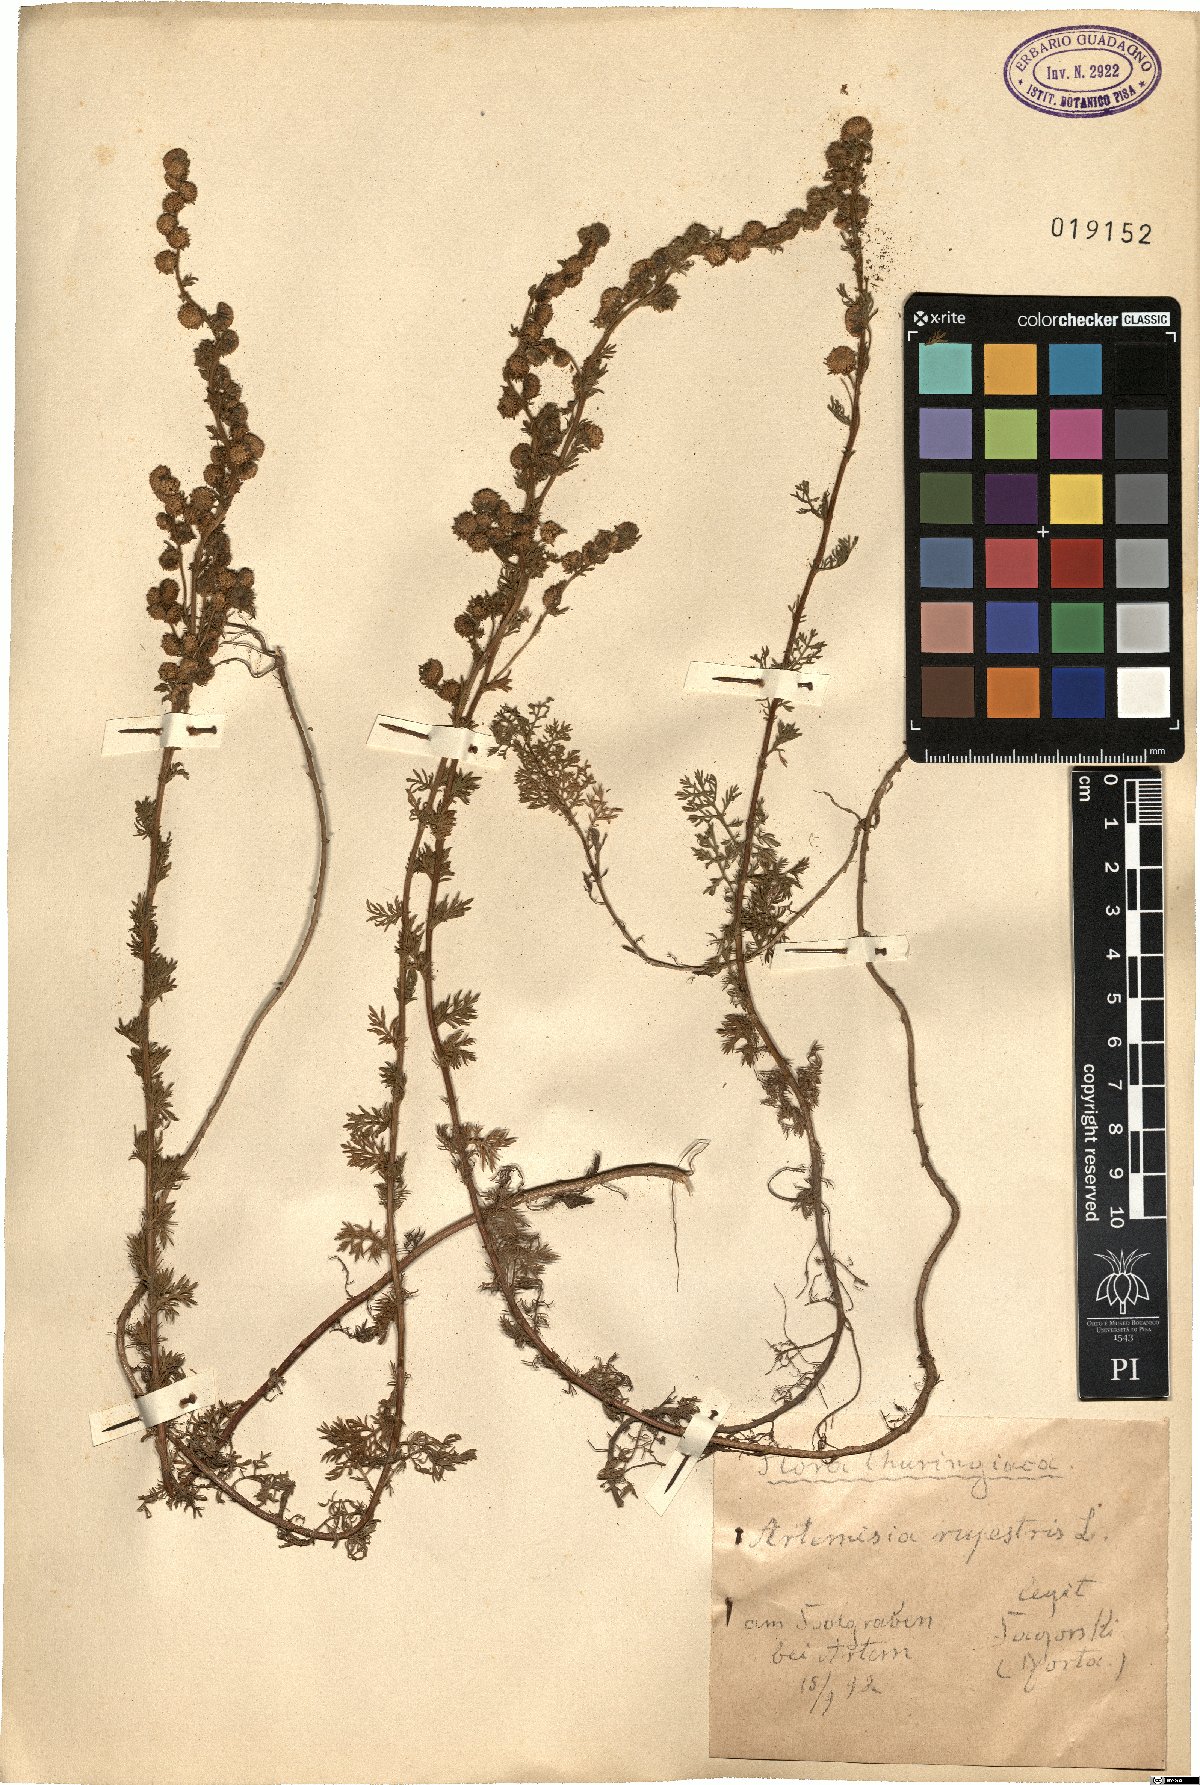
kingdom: Plantae
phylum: Tracheophyta
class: Magnoliopsida
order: Asterales
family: Asteraceae
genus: Artemisia
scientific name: Artemisia rupestris
